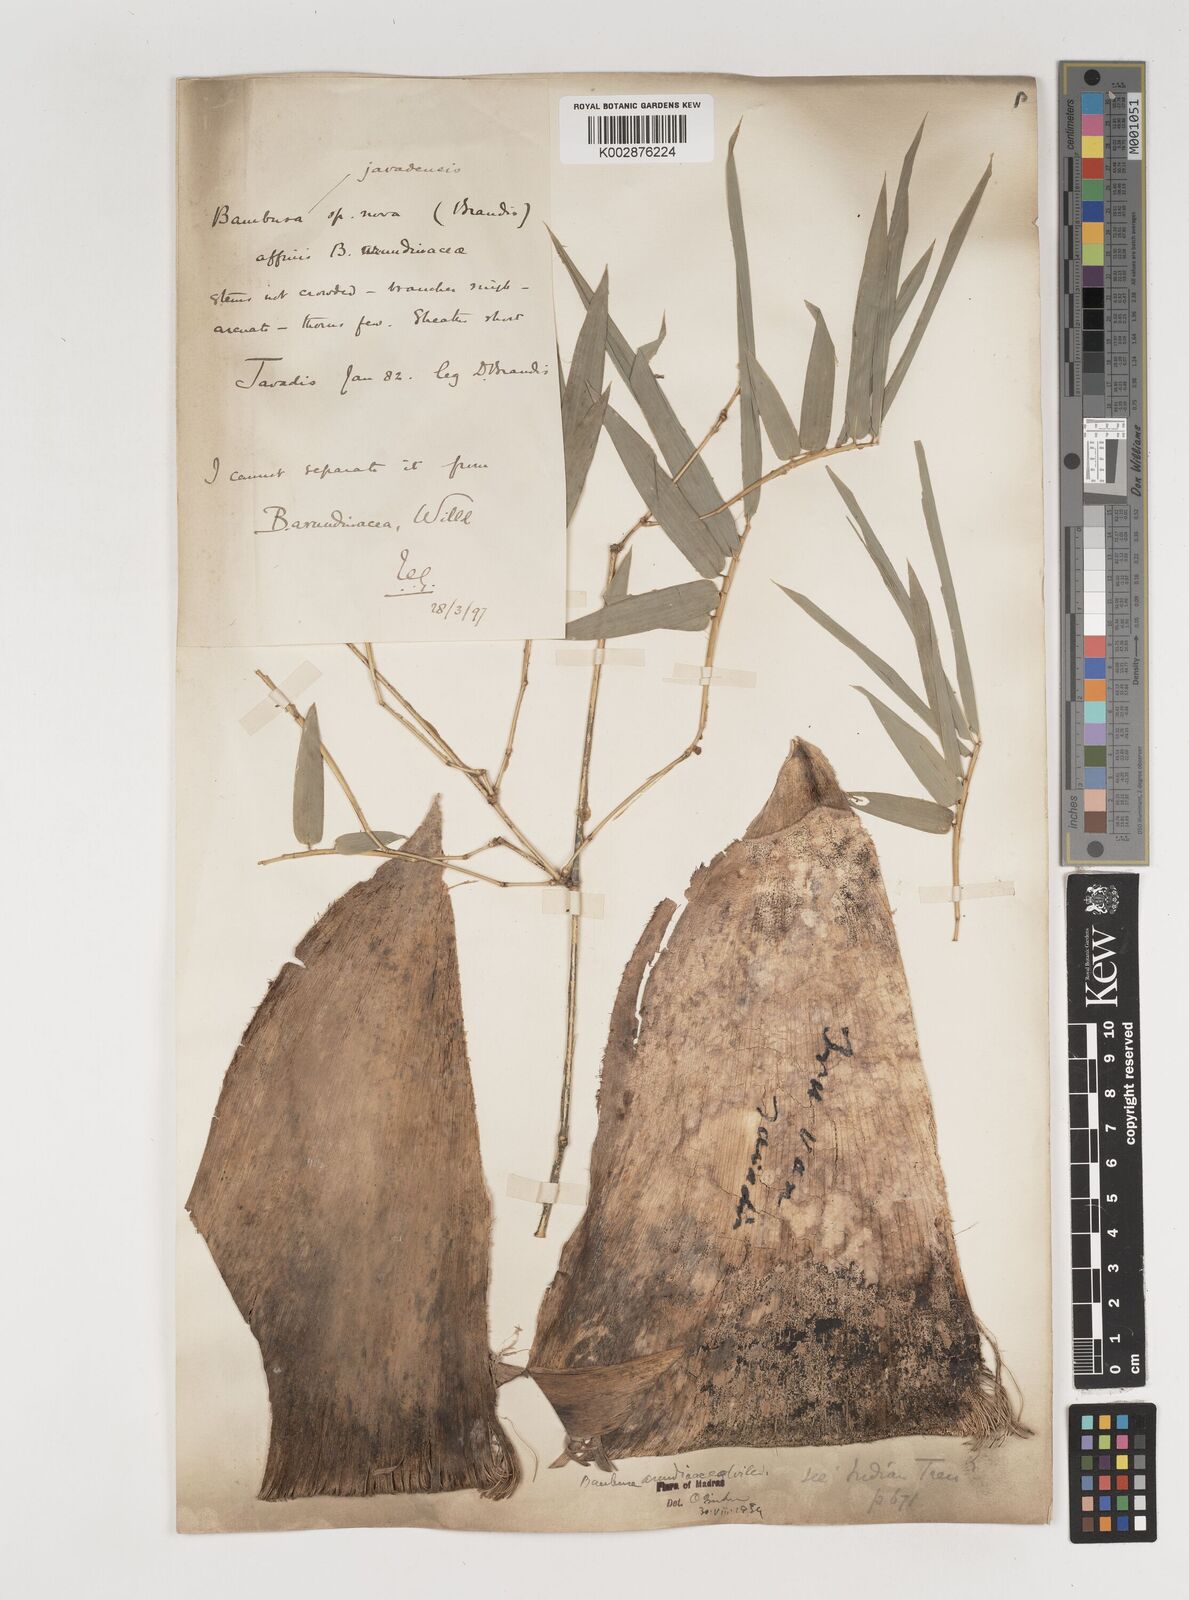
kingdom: Plantae
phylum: Tracheophyta
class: Liliopsida
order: Poales
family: Poaceae
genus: Bambusa
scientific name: Bambusa bambos
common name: Indian thorny bamboo
